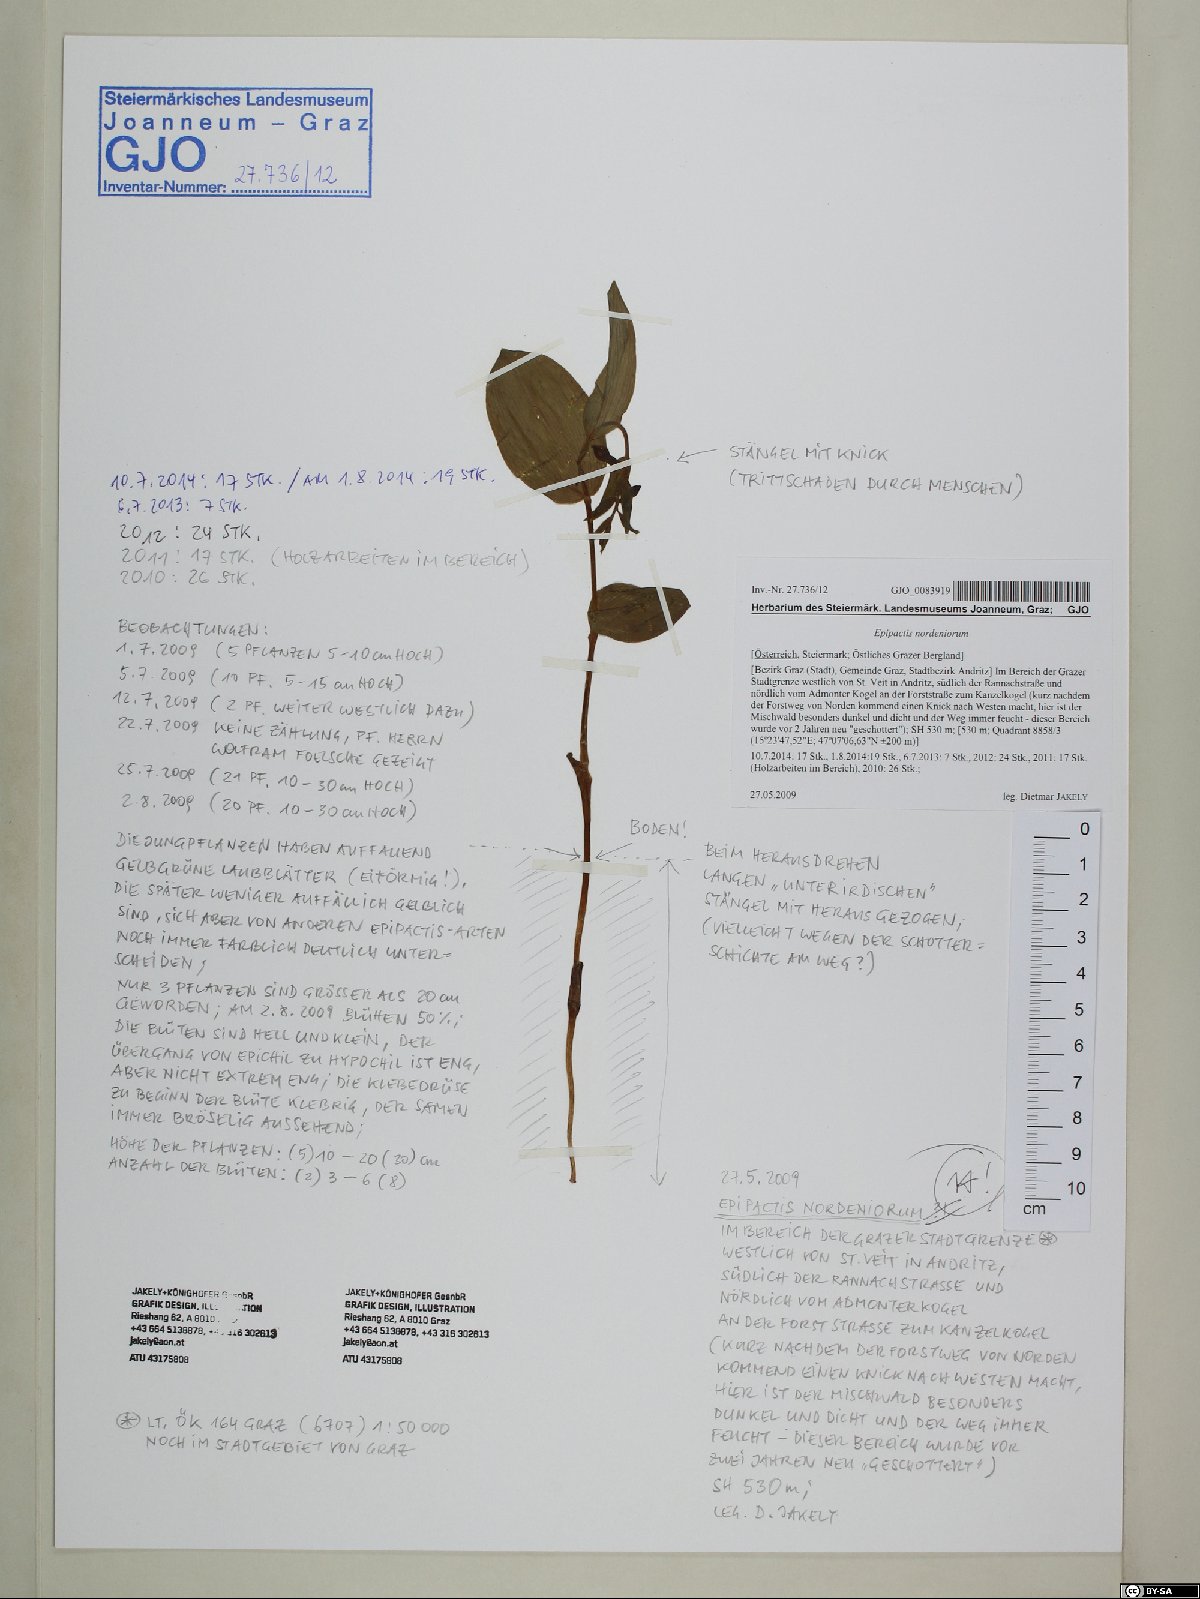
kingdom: Plantae
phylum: Tracheophyta
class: Liliopsida
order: Asparagales
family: Orchidaceae
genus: Epipactis
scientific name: Epipactis helleborine
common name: Broad-leaved helleborine
